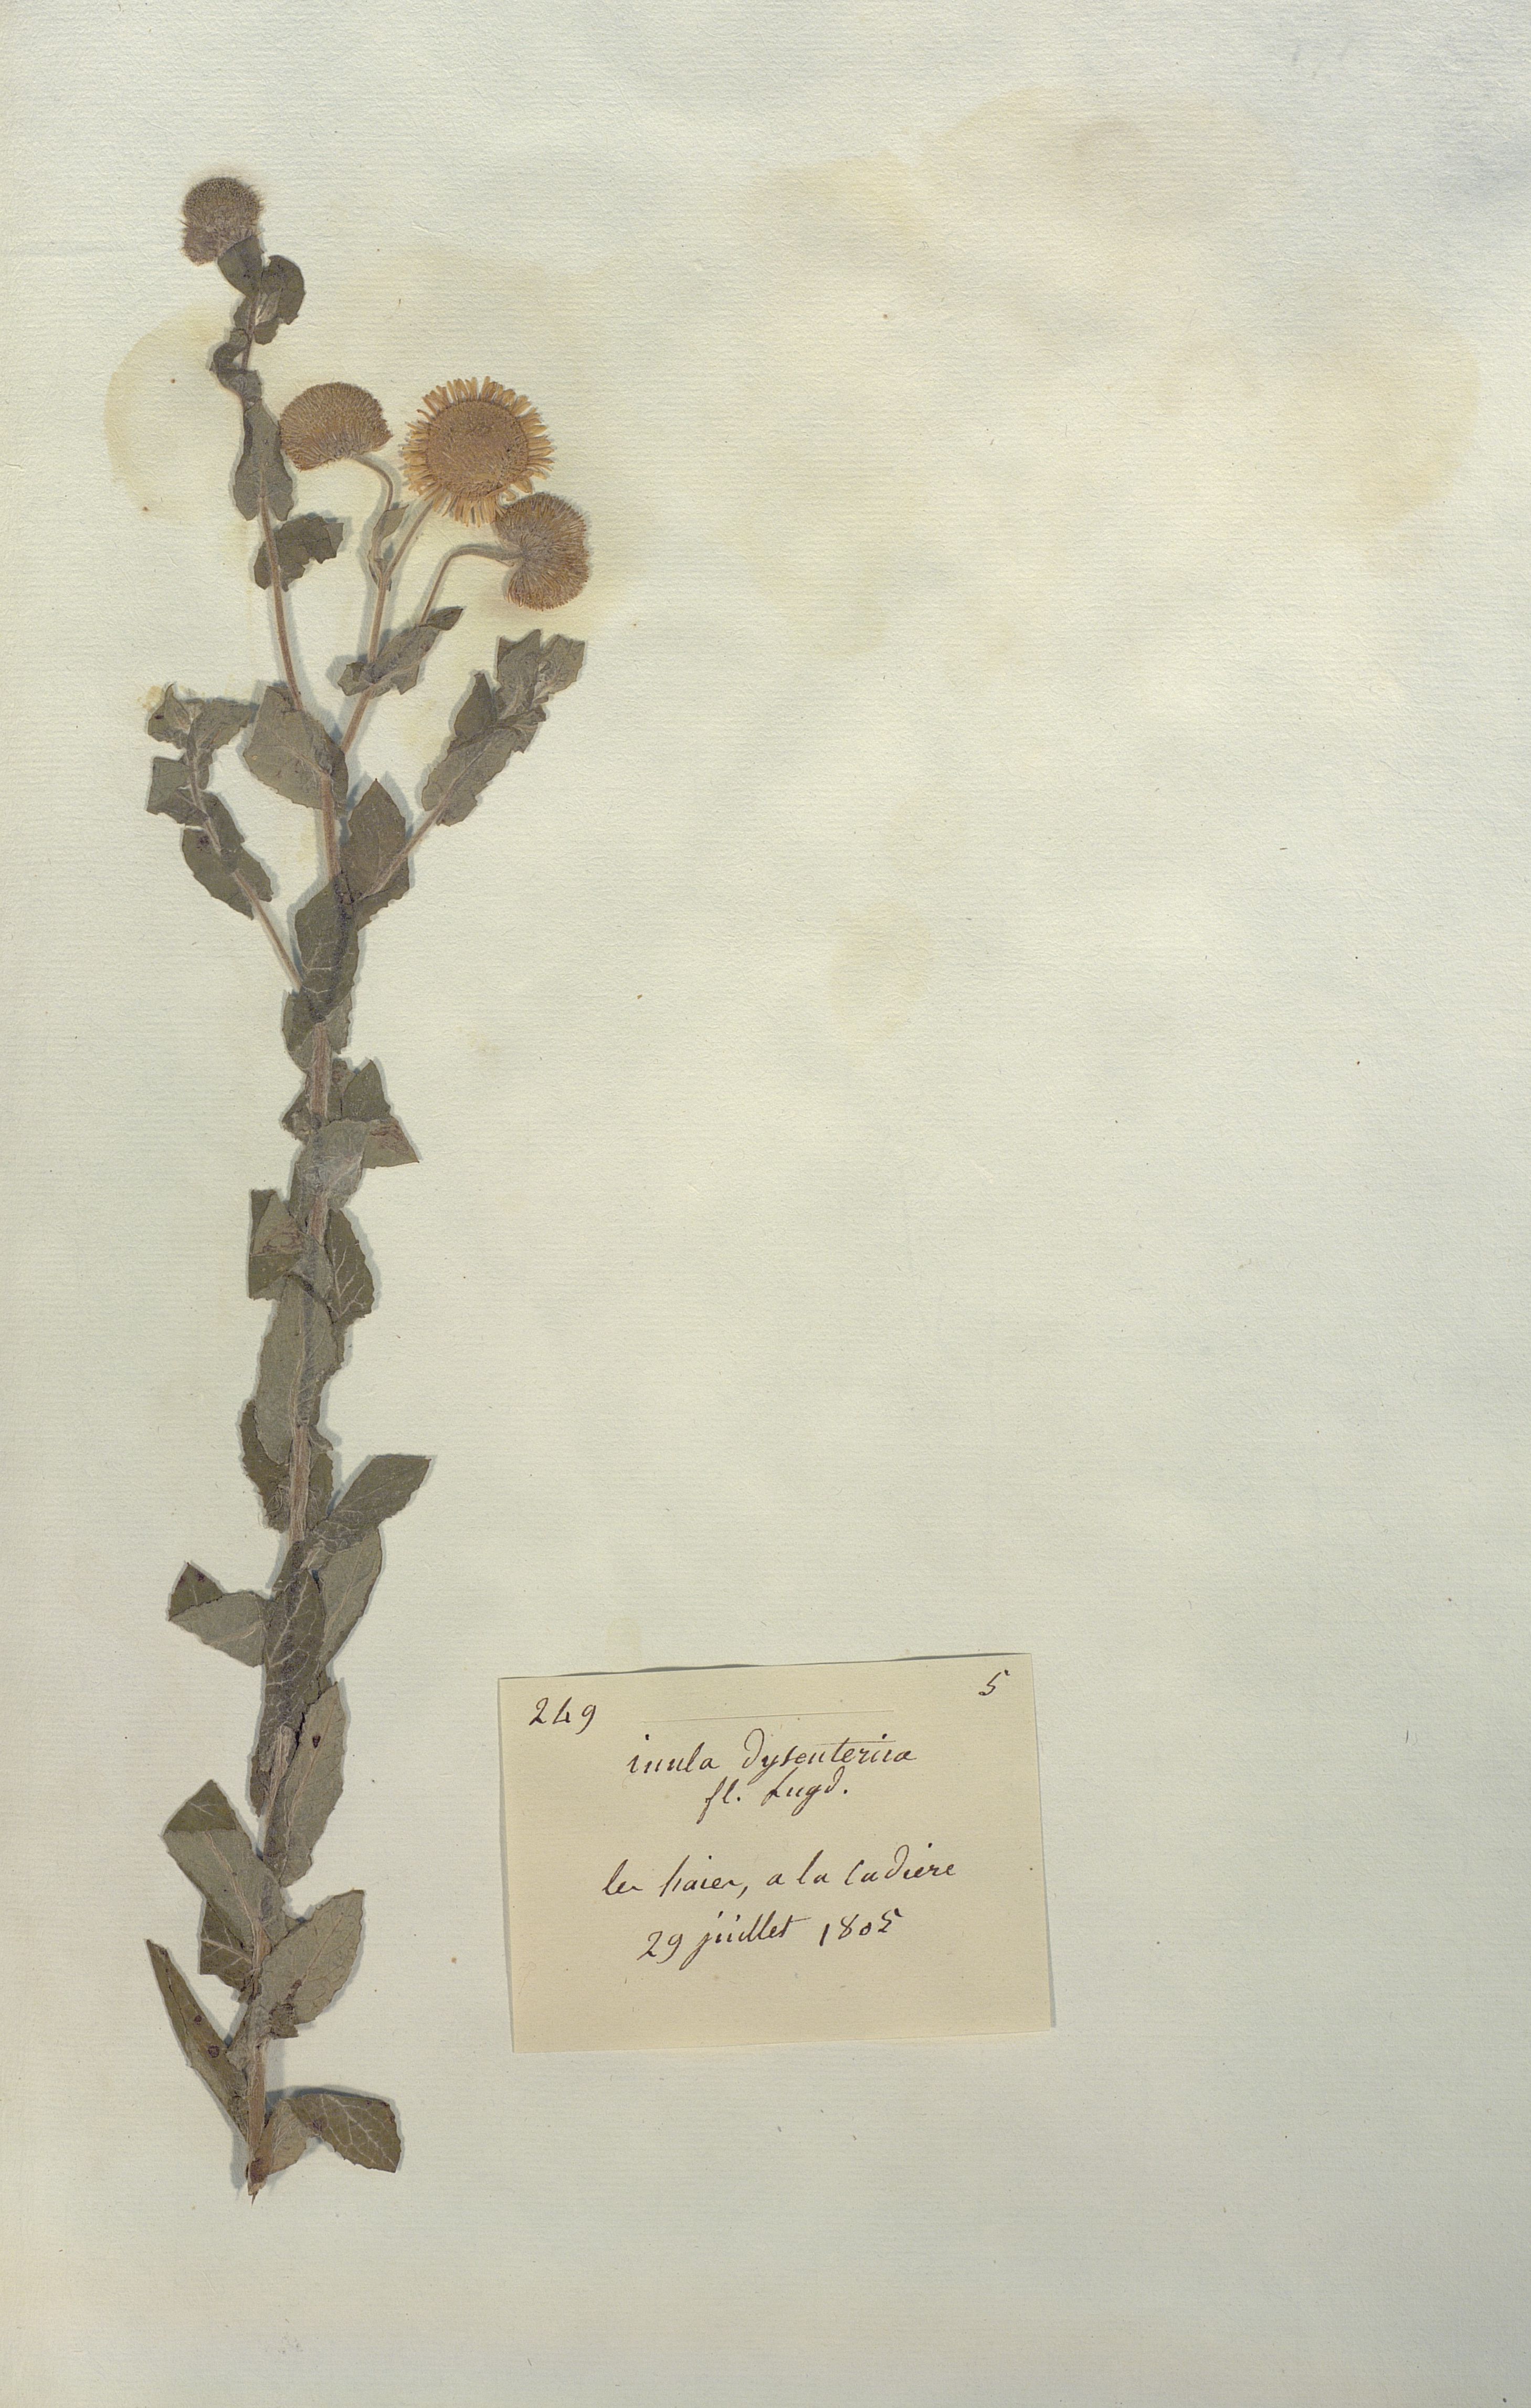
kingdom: Plantae
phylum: Tracheophyta
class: Magnoliopsida
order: Asterales
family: Asteraceae
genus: Inula
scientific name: Inula dysenterica
